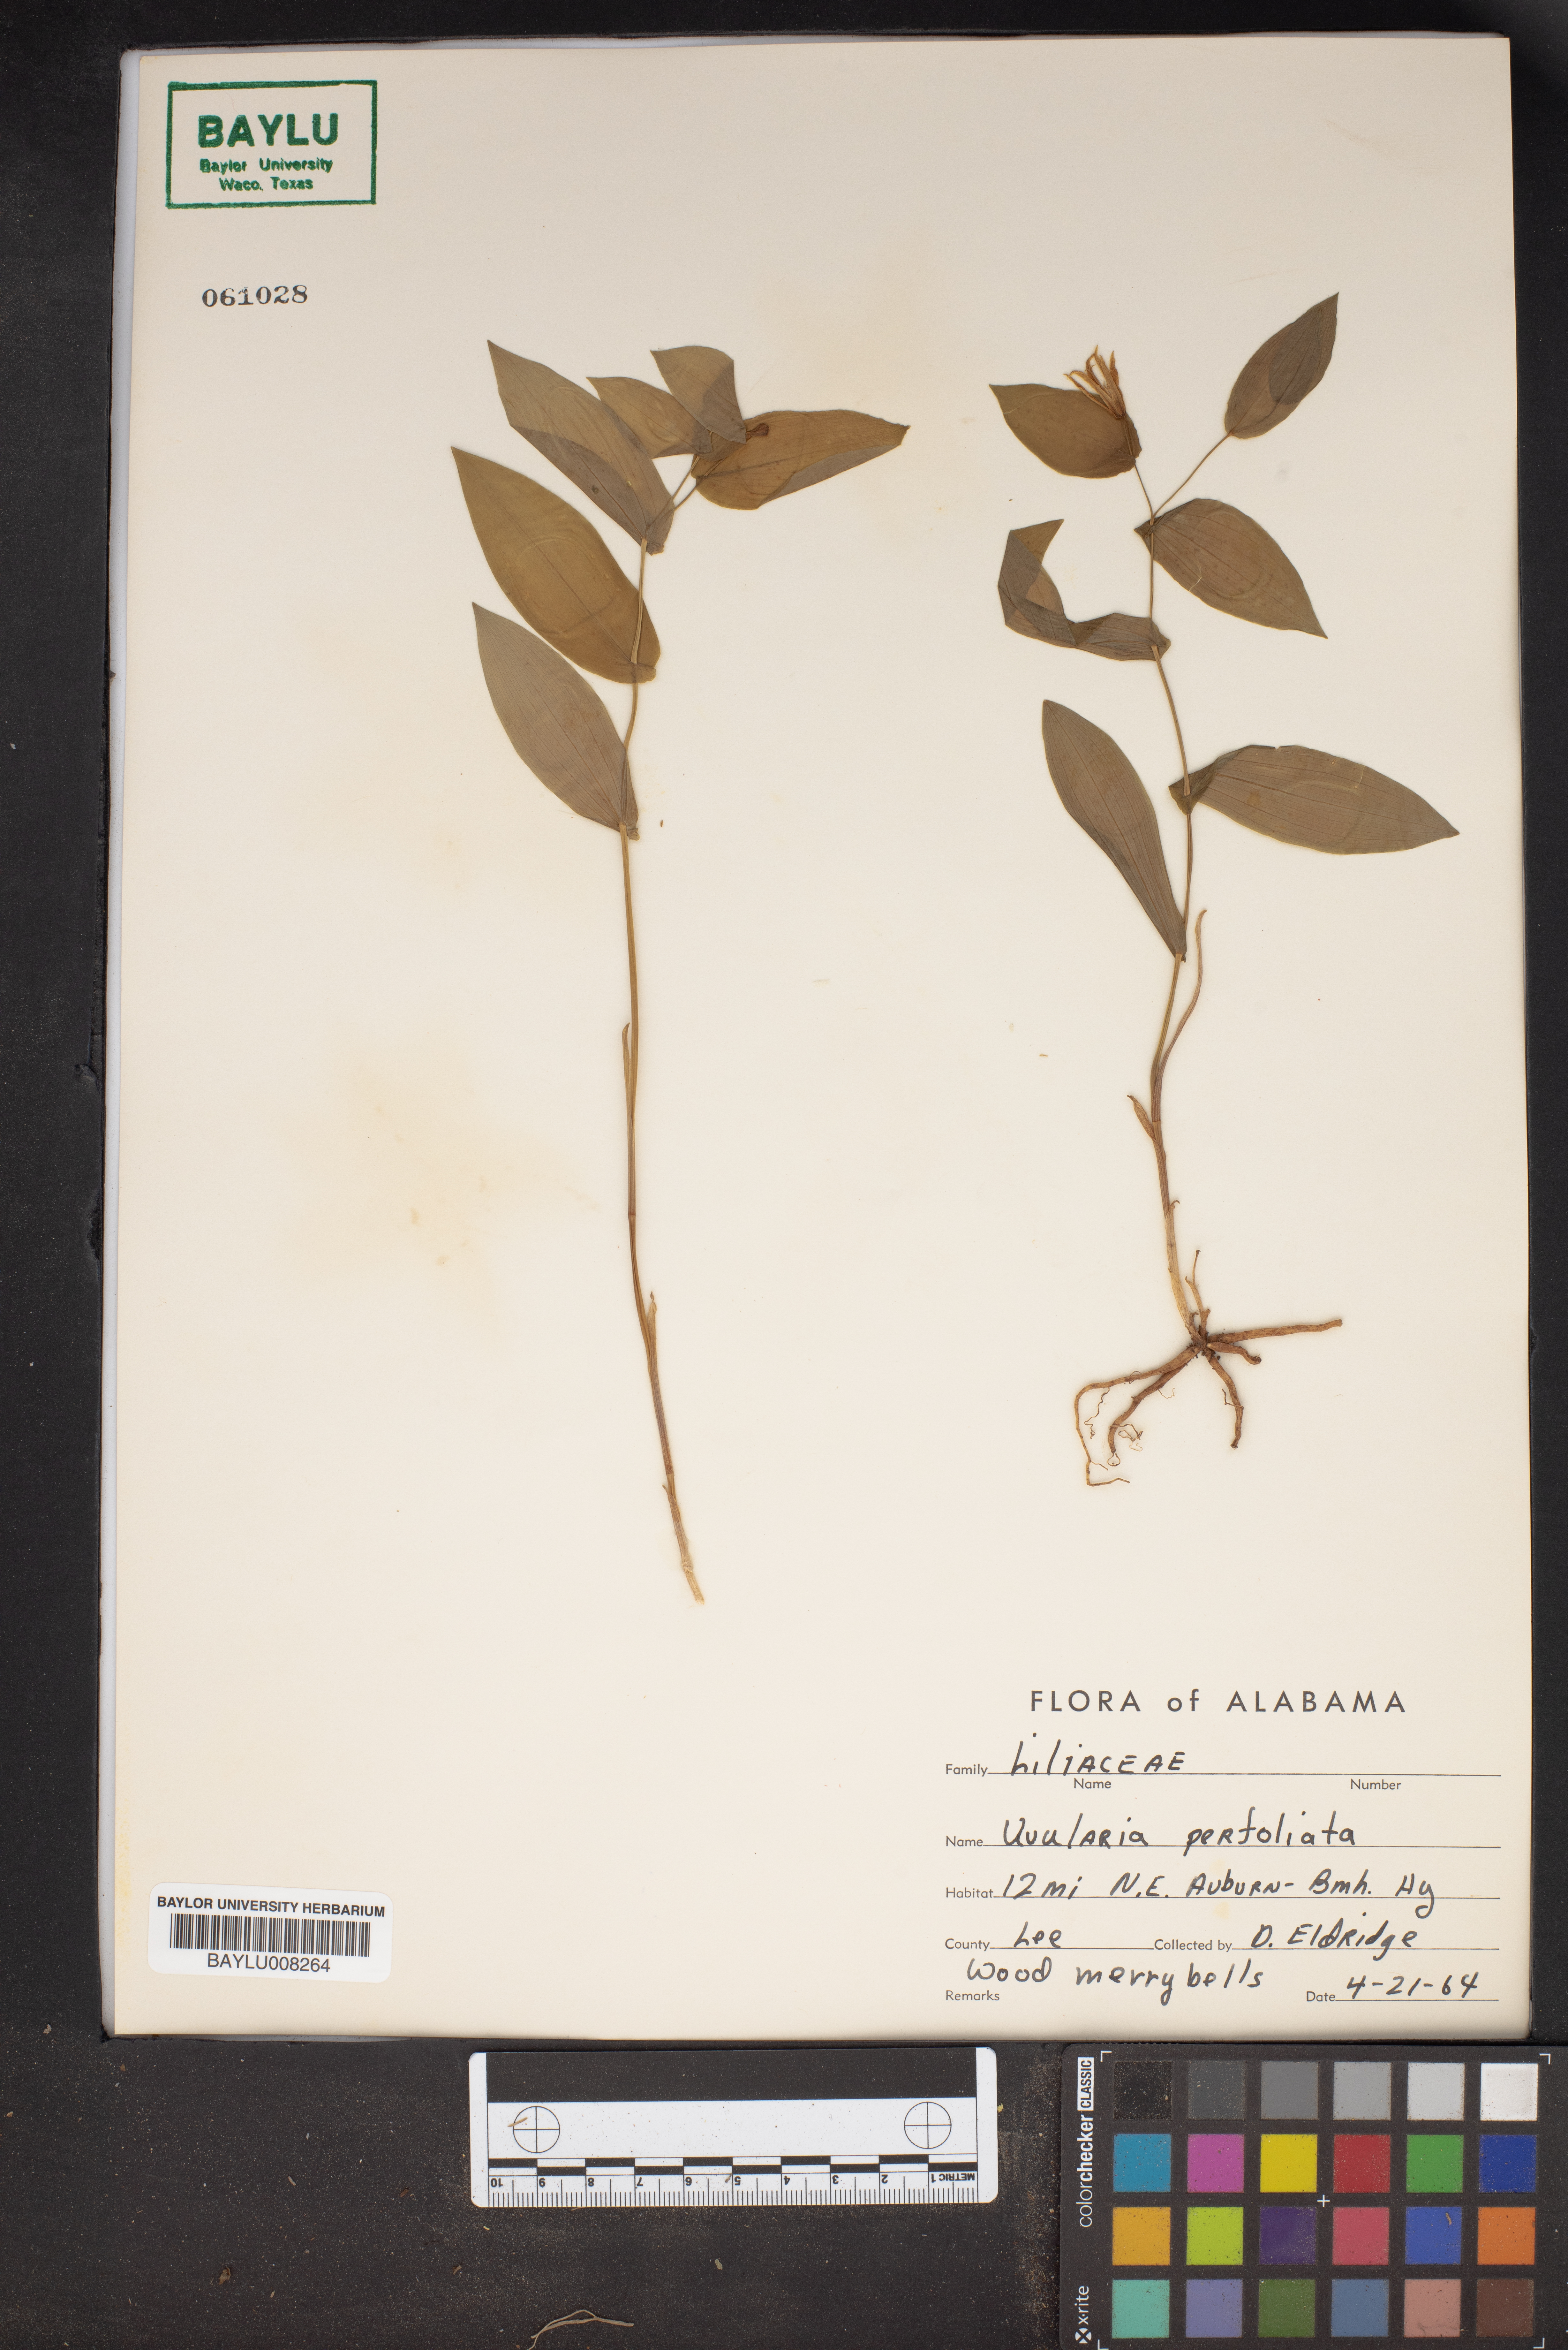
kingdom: Plantae
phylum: Tracheophyta
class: Liliopsida
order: Liliales
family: Colchicaceae
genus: Uvularia
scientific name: Uvularia perfoliata
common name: Perfoliate bellwort
